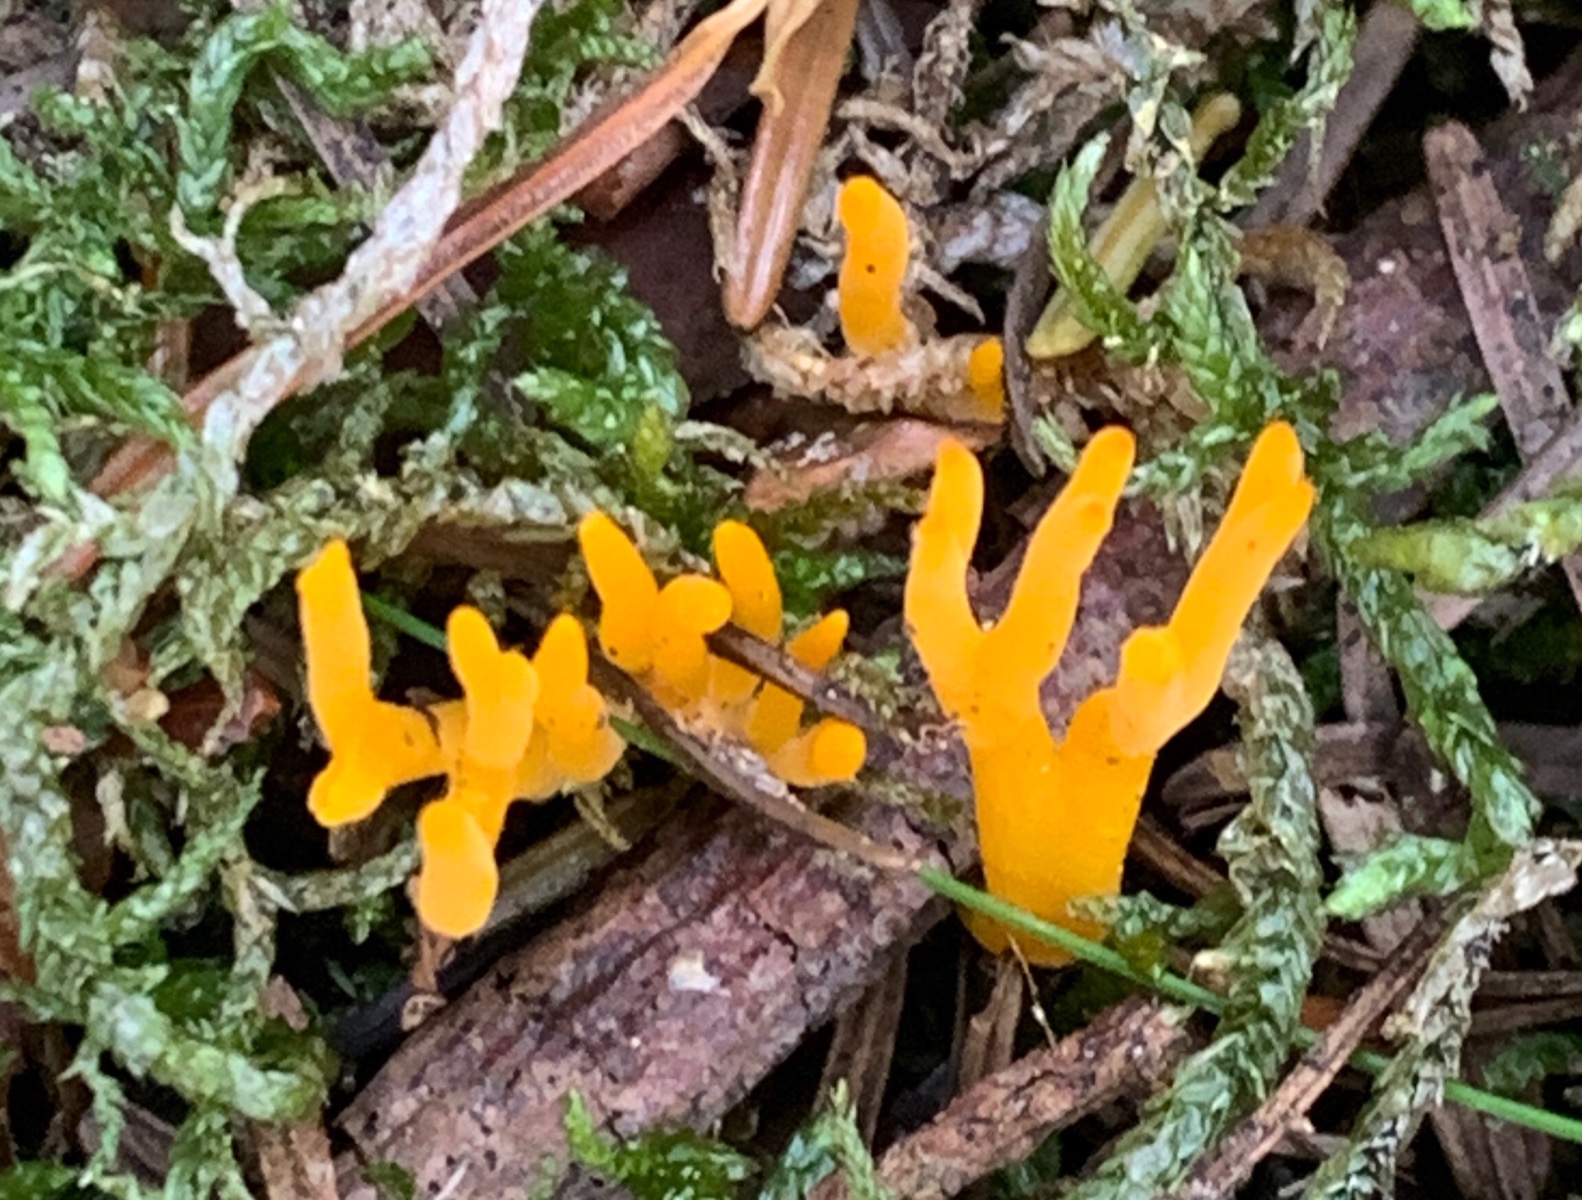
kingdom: Fungi
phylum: Basidiomycota
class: Dacrymycetes
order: Dacrymycetales
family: Dacrymycetaceae
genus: Calocera
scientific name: Calocera viscosa
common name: almindelig guldgaffel
